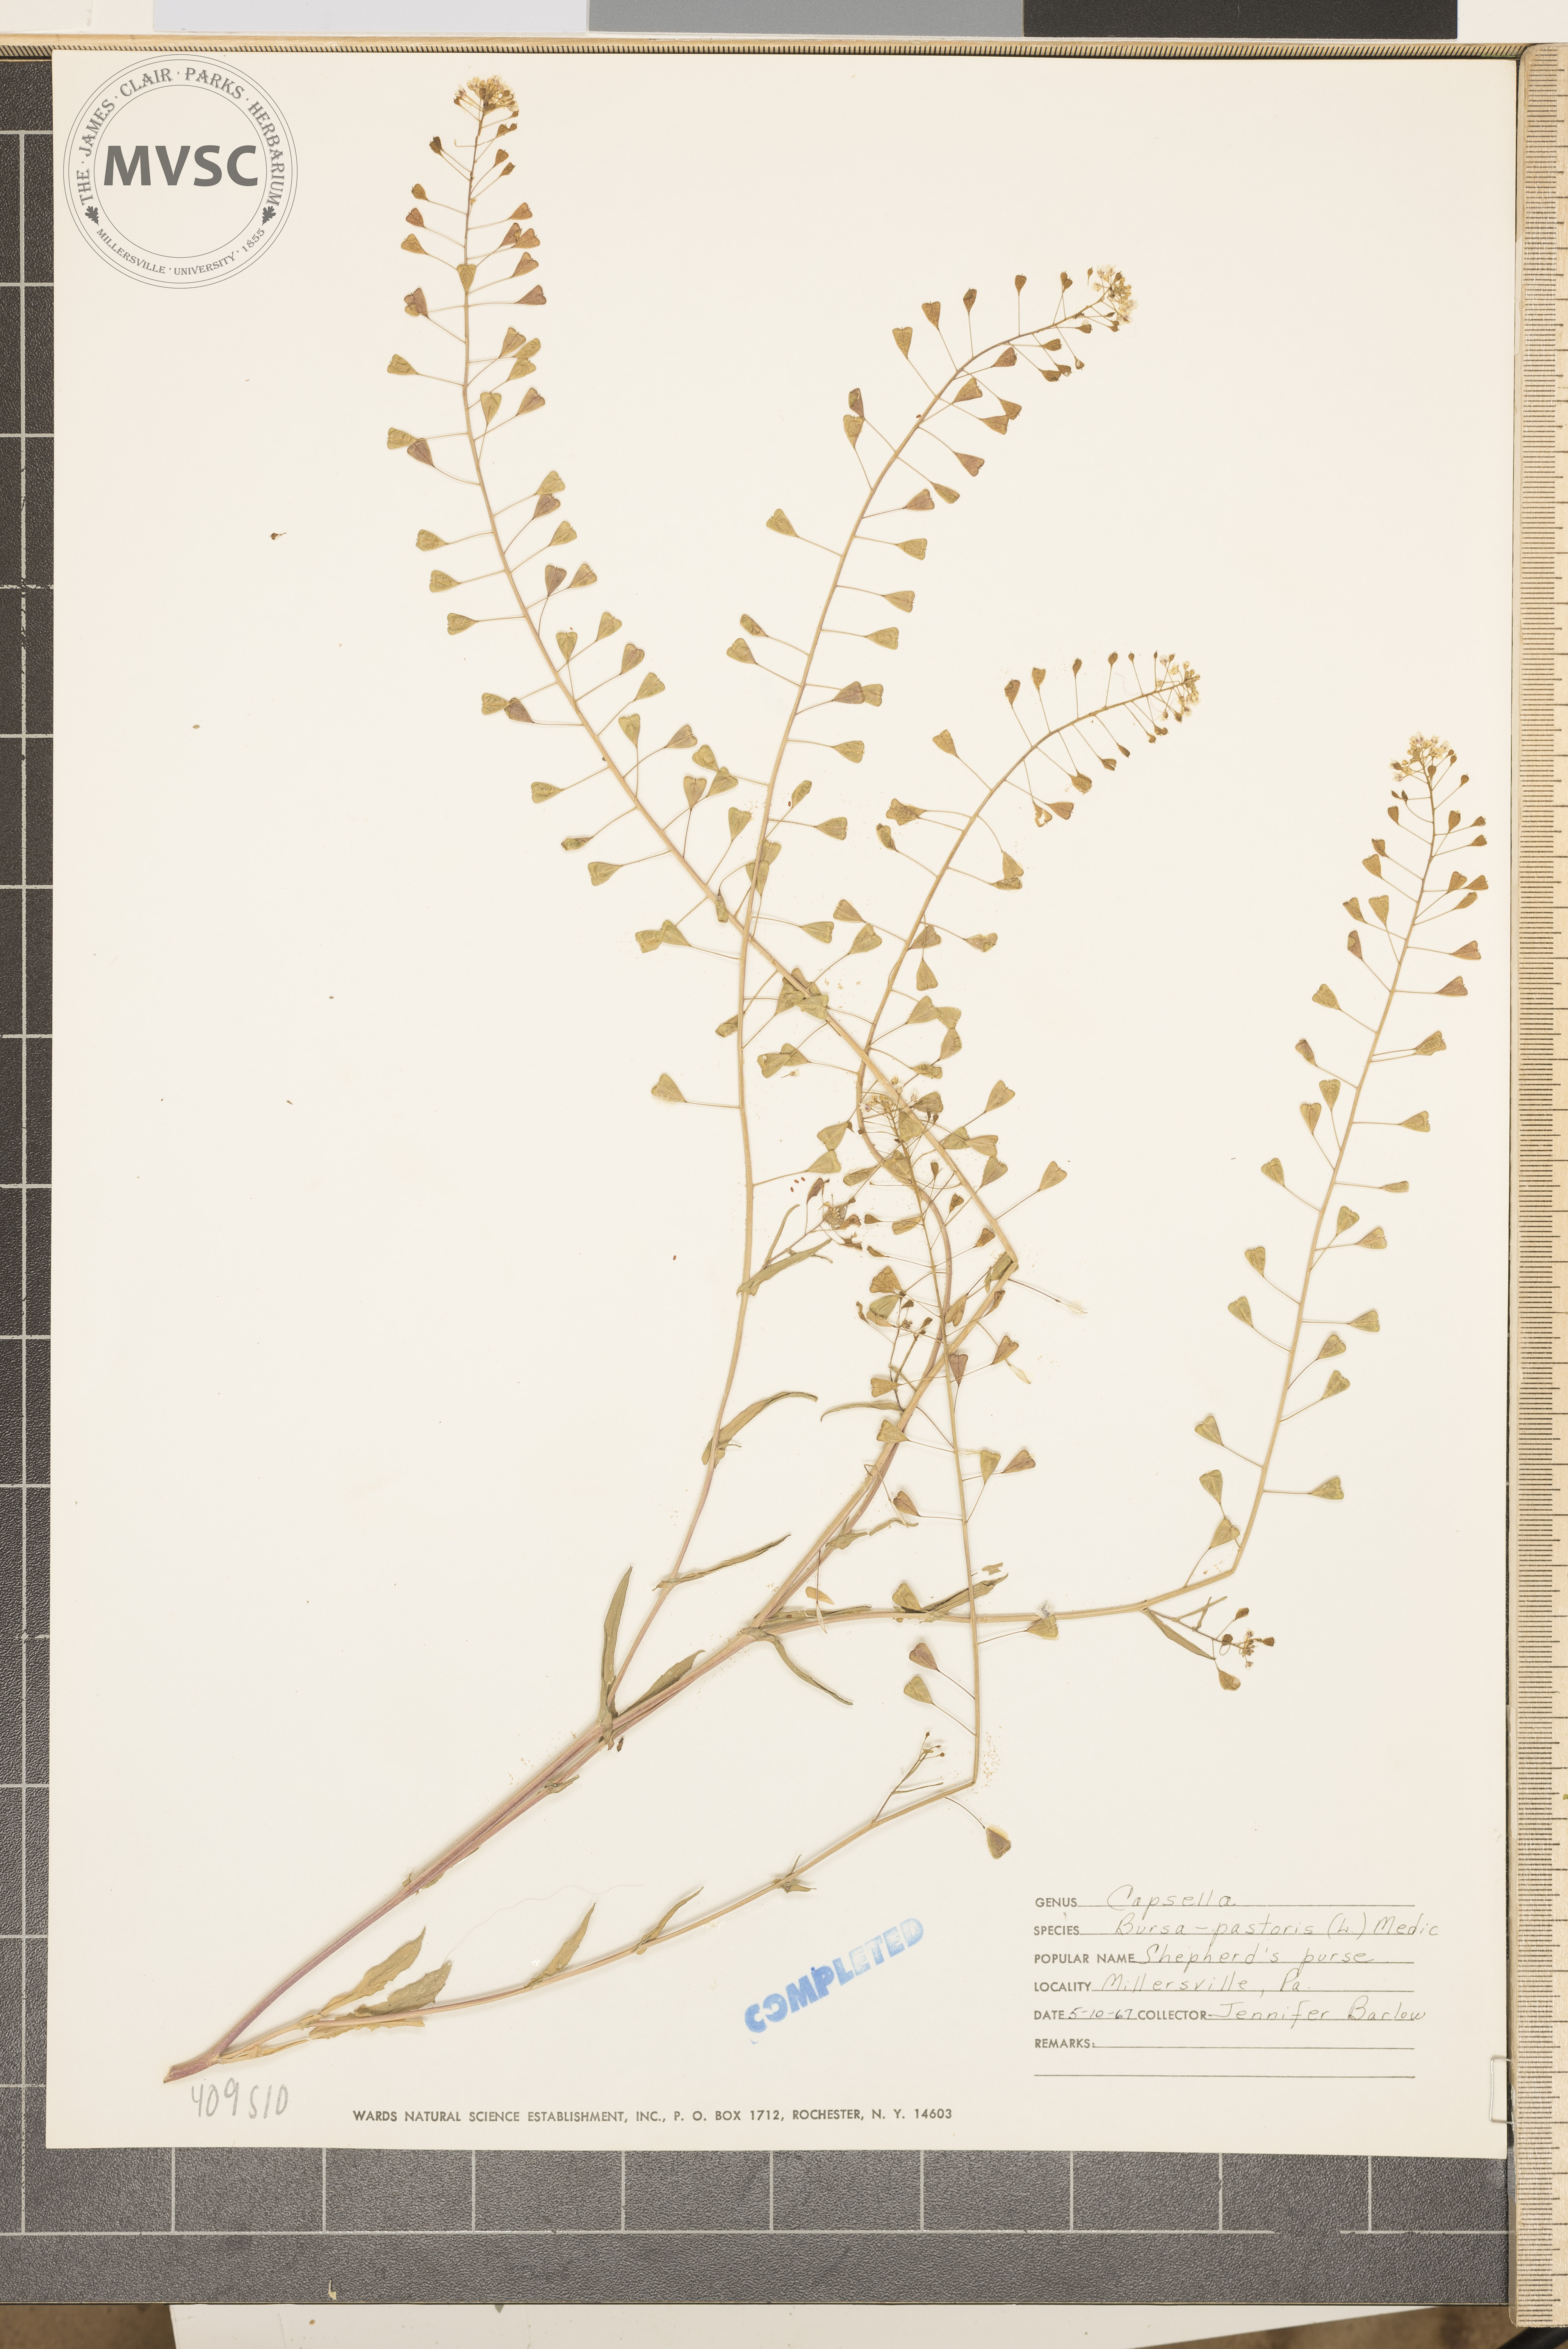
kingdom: Plantae
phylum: Tracheophyta
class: Magnoliopsida
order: Brassicales
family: Brassicaceae
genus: Capsella
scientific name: Capsella bursa-pastoris
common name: Shepherd's purse
